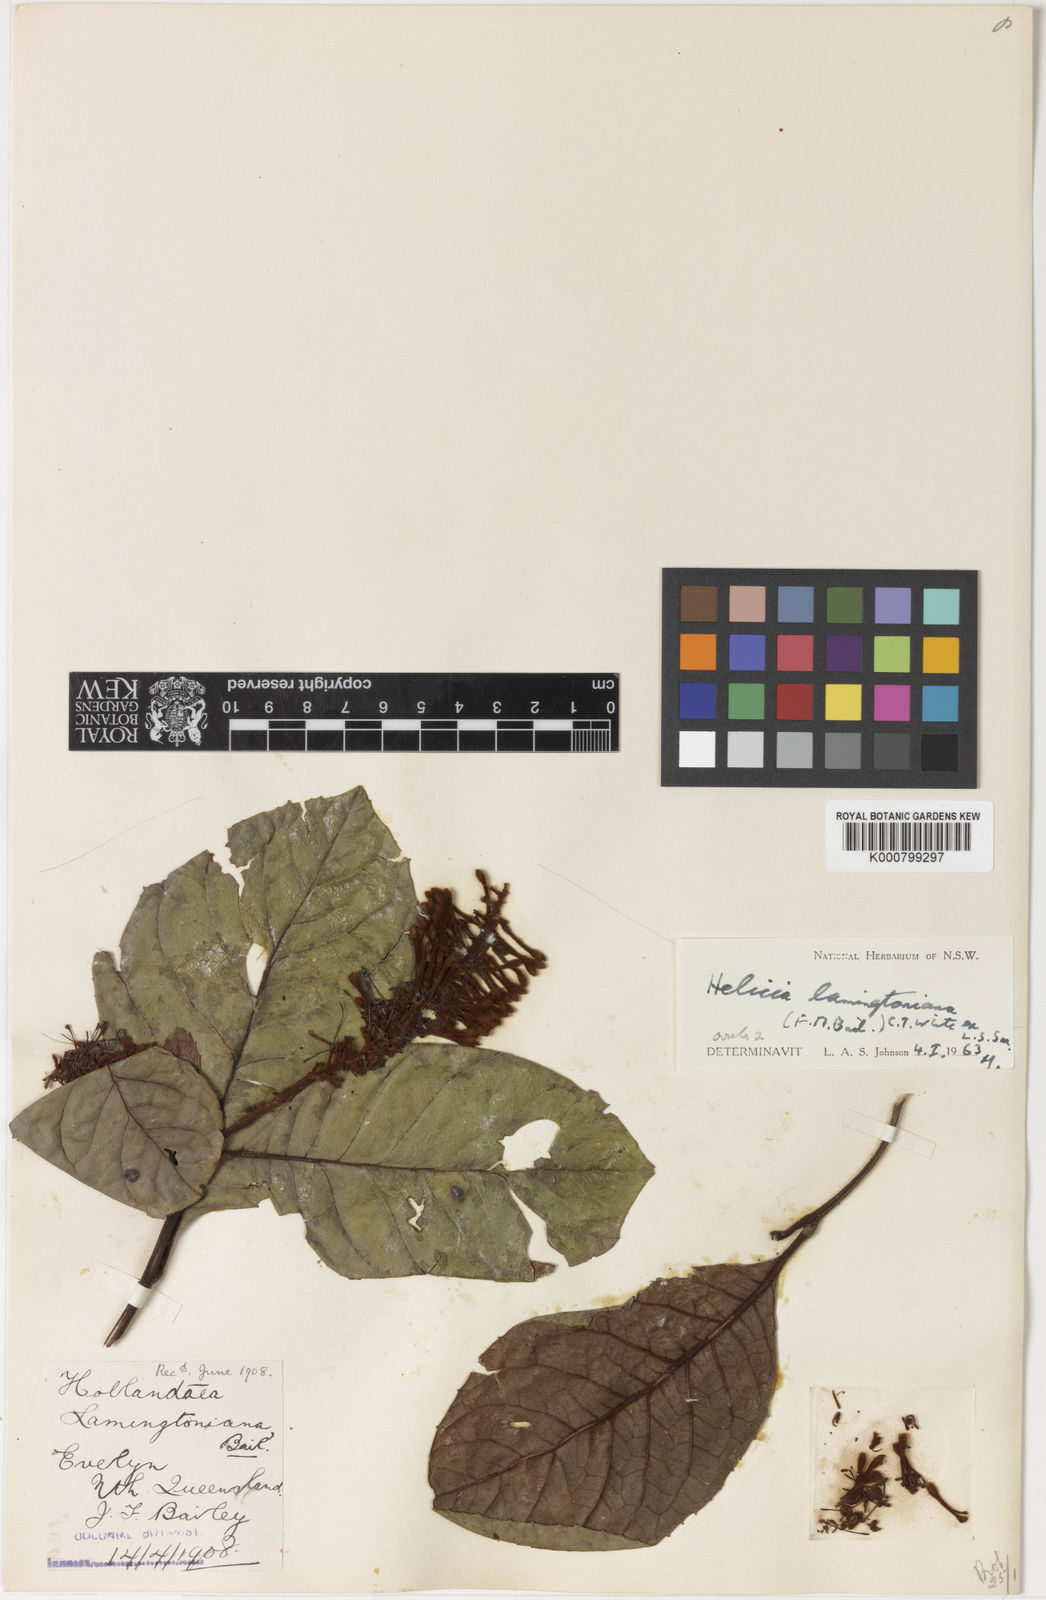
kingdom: Plantae
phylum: Tracheophyta
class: Magnoliopsida
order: Proteales
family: Proteaceae
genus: Helicia
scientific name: Helicia lamingtoniana
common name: Silky oak
